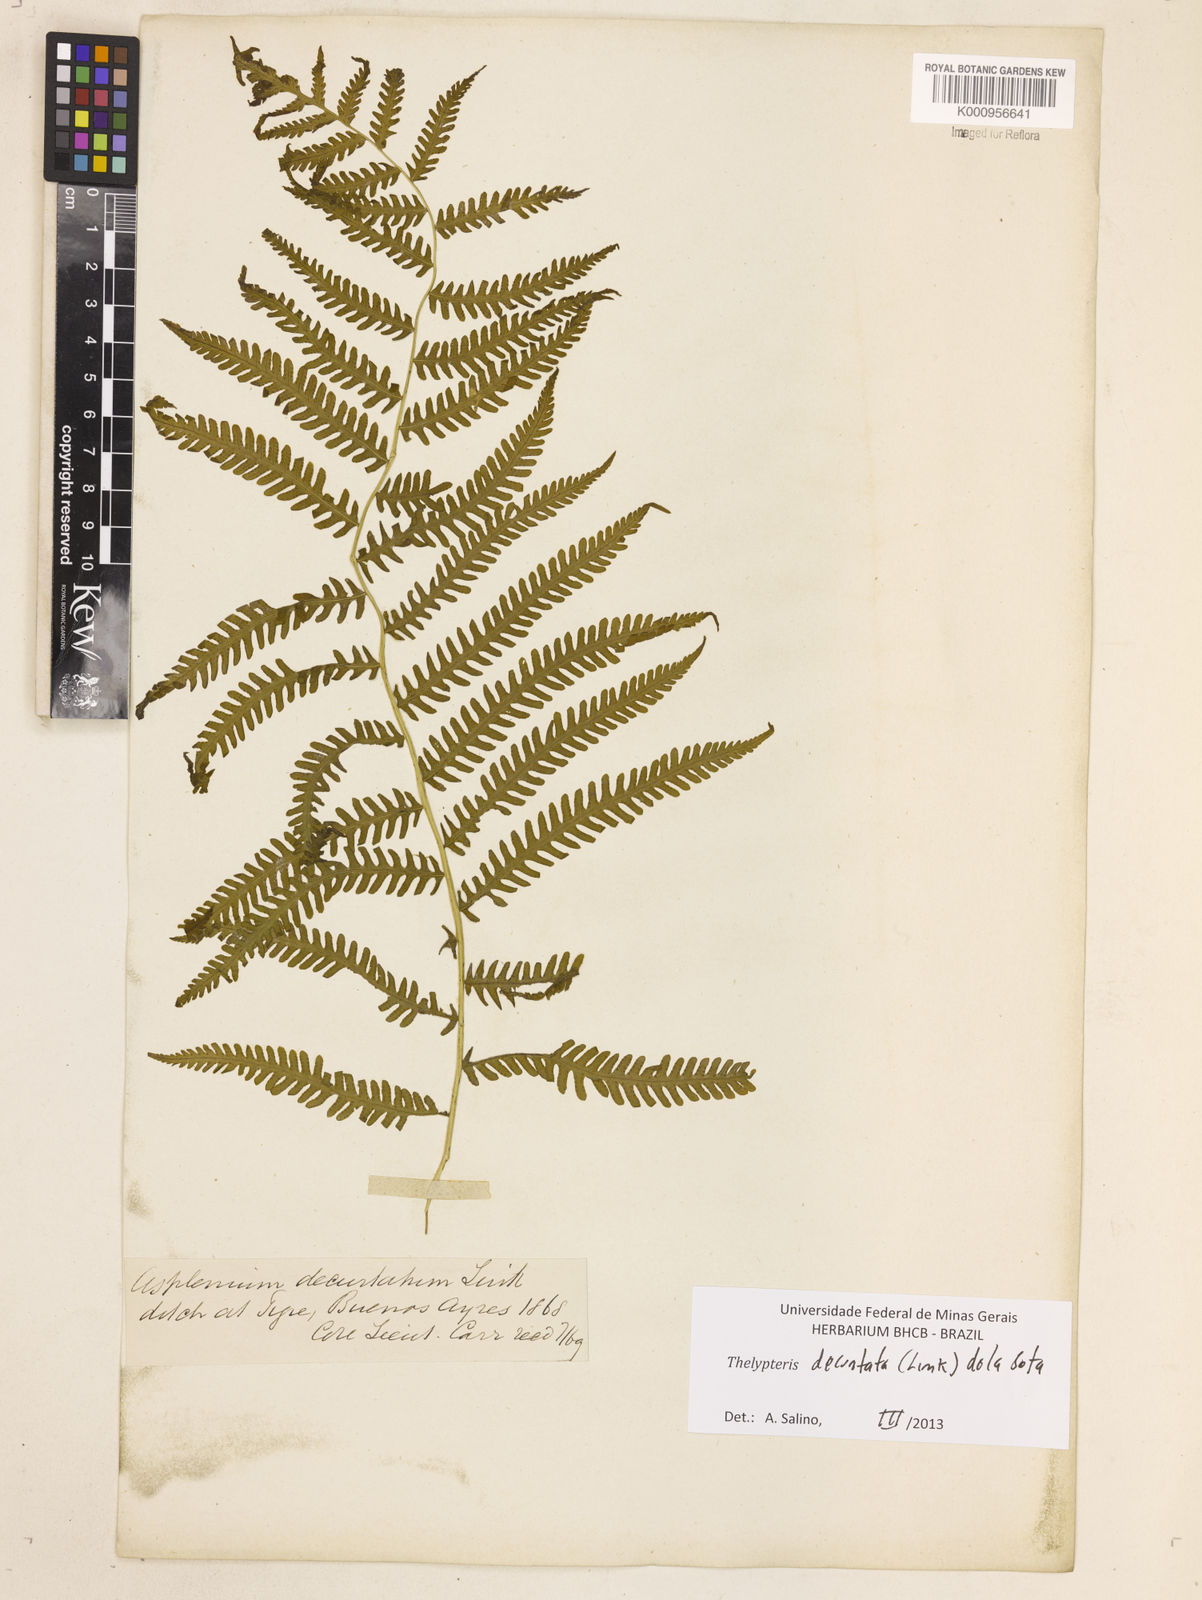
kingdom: Plantae
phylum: Tracheophyta
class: Polypodiopsida
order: Polypodiales
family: Thelypteridaceae
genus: Amauropelta
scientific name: Amauropelta decurtata
